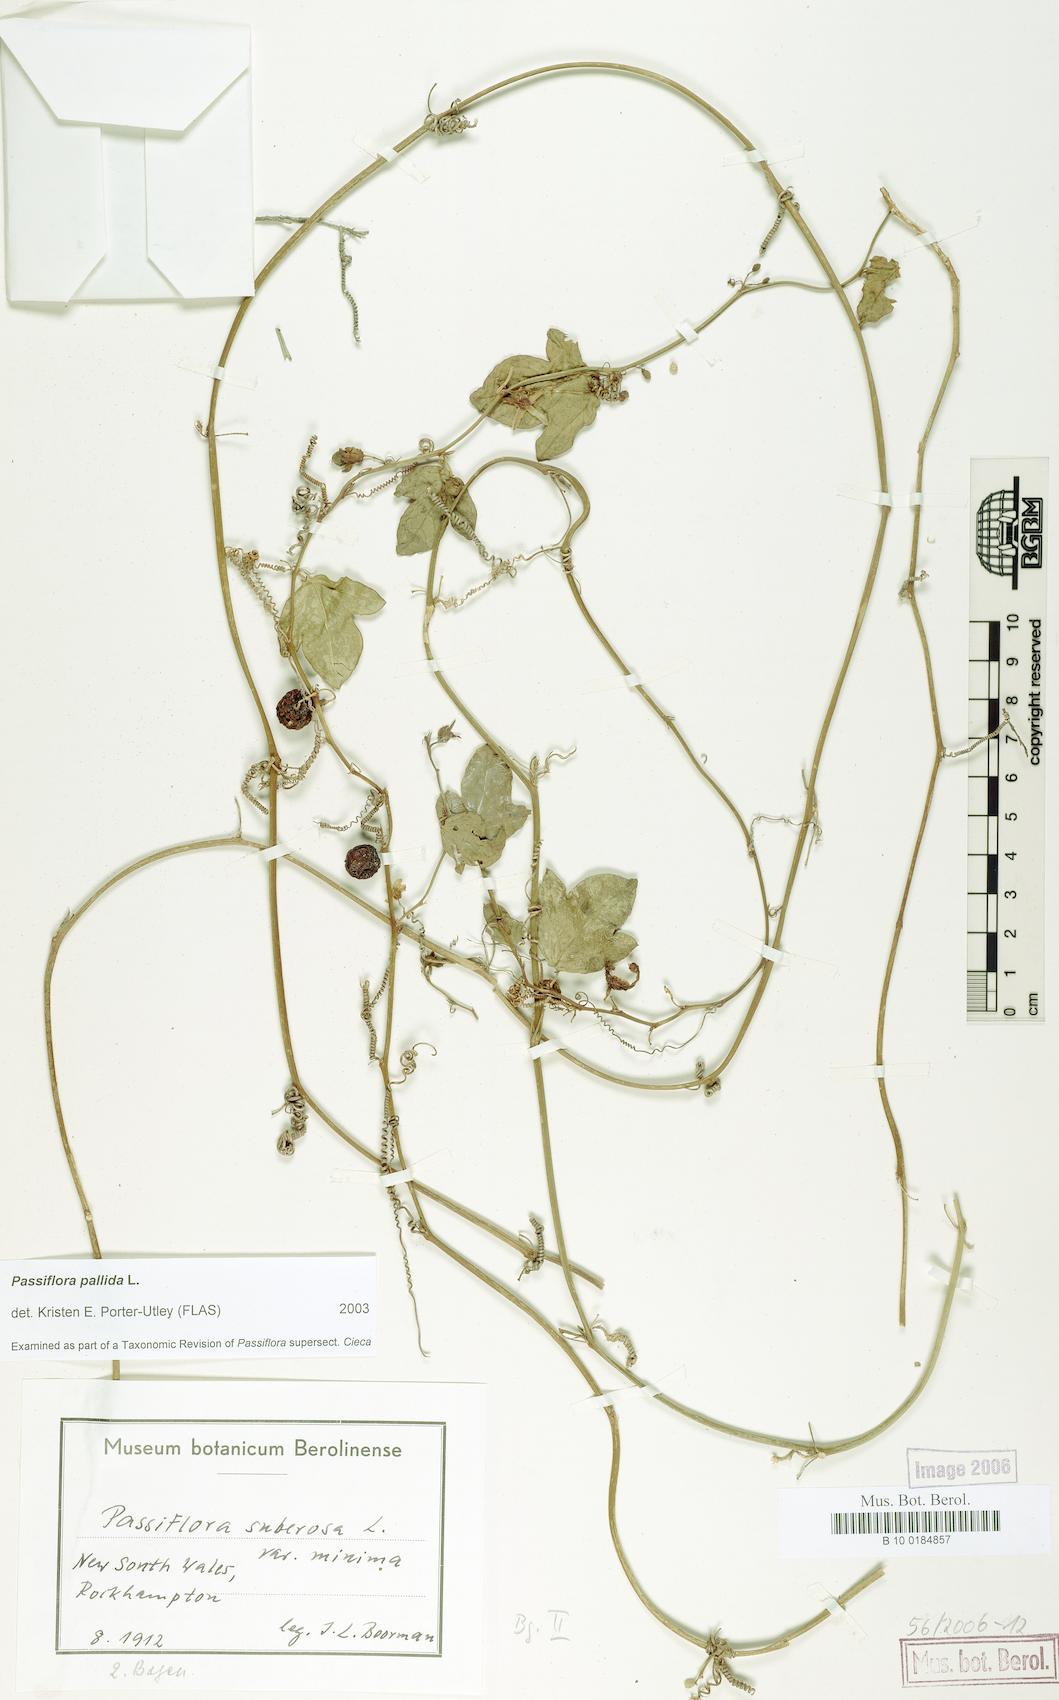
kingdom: Plantae
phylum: Tracheophyta
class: Magnoliopsida
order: Malpighiales
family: Passifloraceae
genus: Passiflora
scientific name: Passiflora pallida
